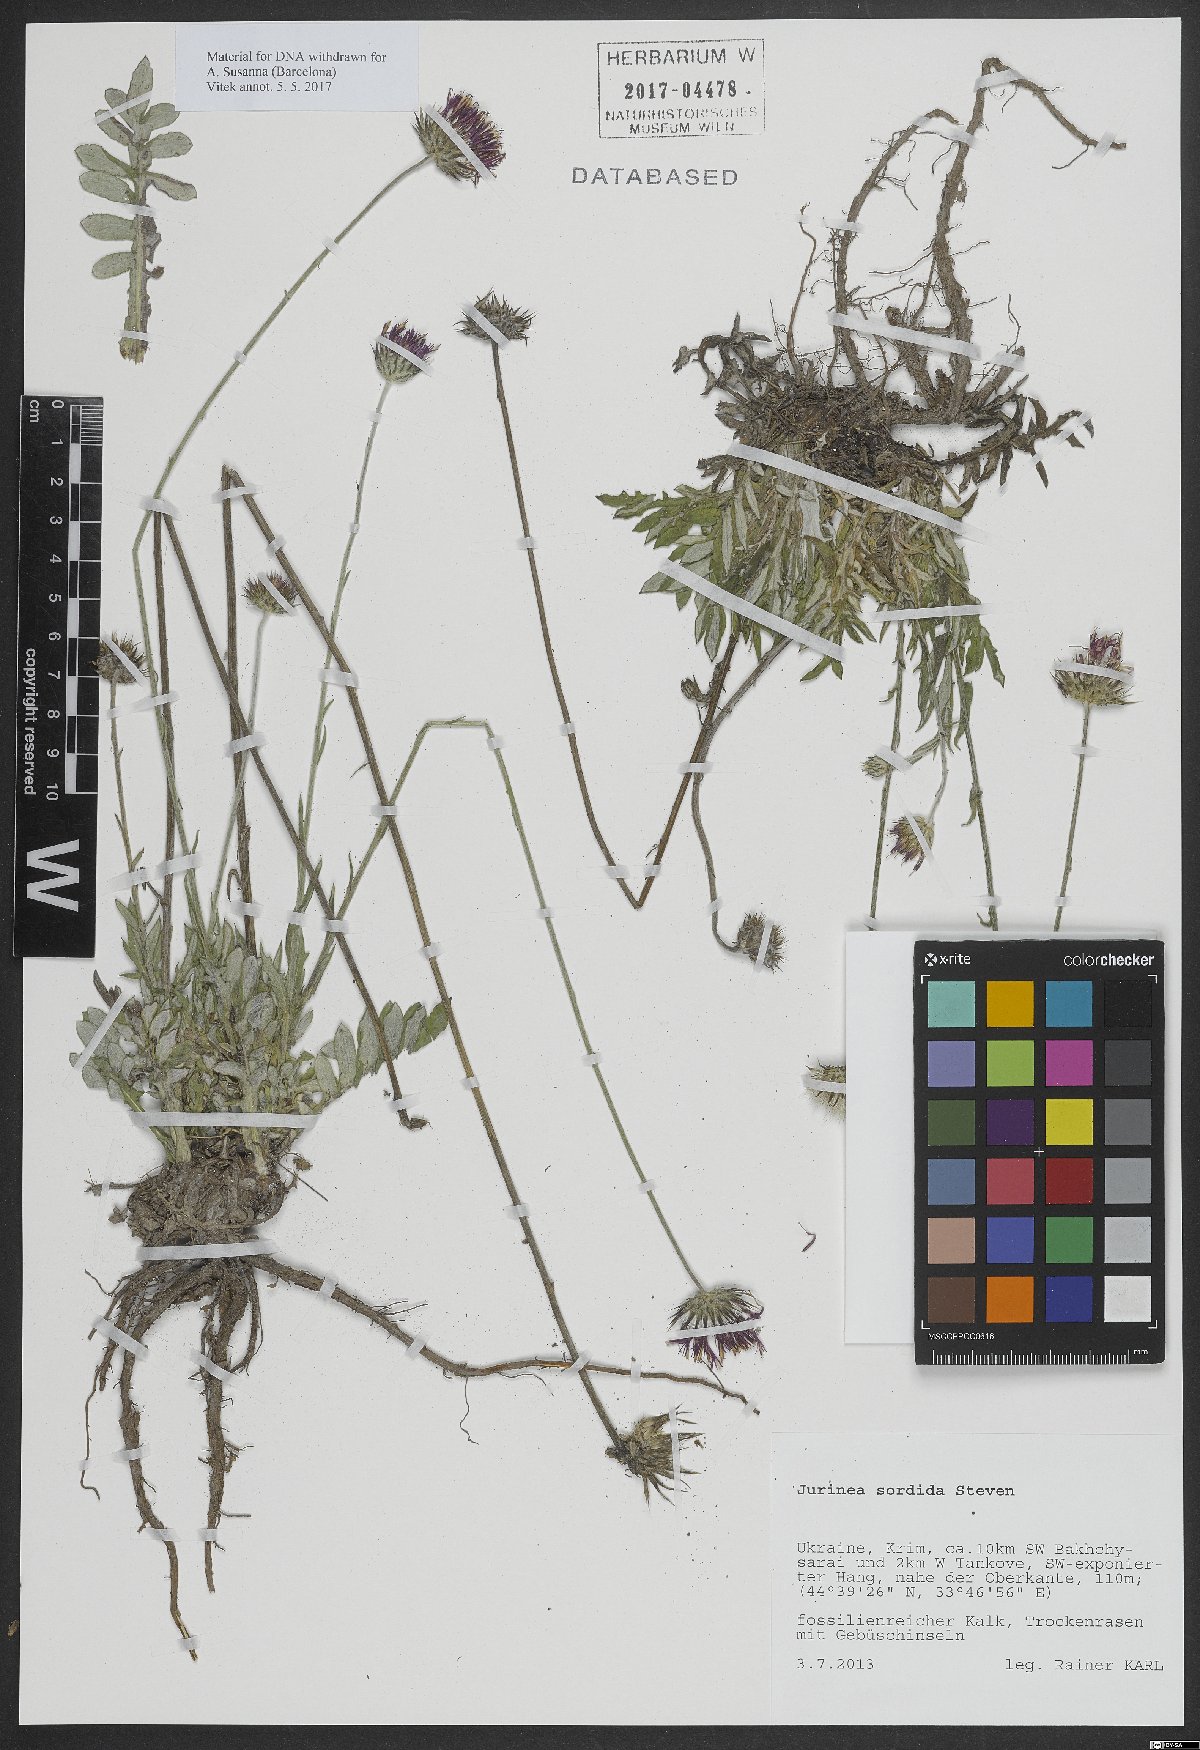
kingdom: Plantae
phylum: Tracheophyta
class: Magnoliopsida
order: Asterales
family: Asteraceae
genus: Jurinea
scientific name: Jurinea ledebourii
